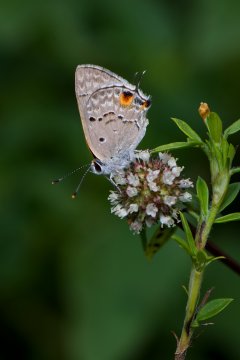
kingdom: Animalia
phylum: Arthropoda
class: Insecta
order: Lepidoptera
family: Lycaenidae
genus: Callicista
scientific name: Callicista columella
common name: Mallow Scrub-Hairstreak
